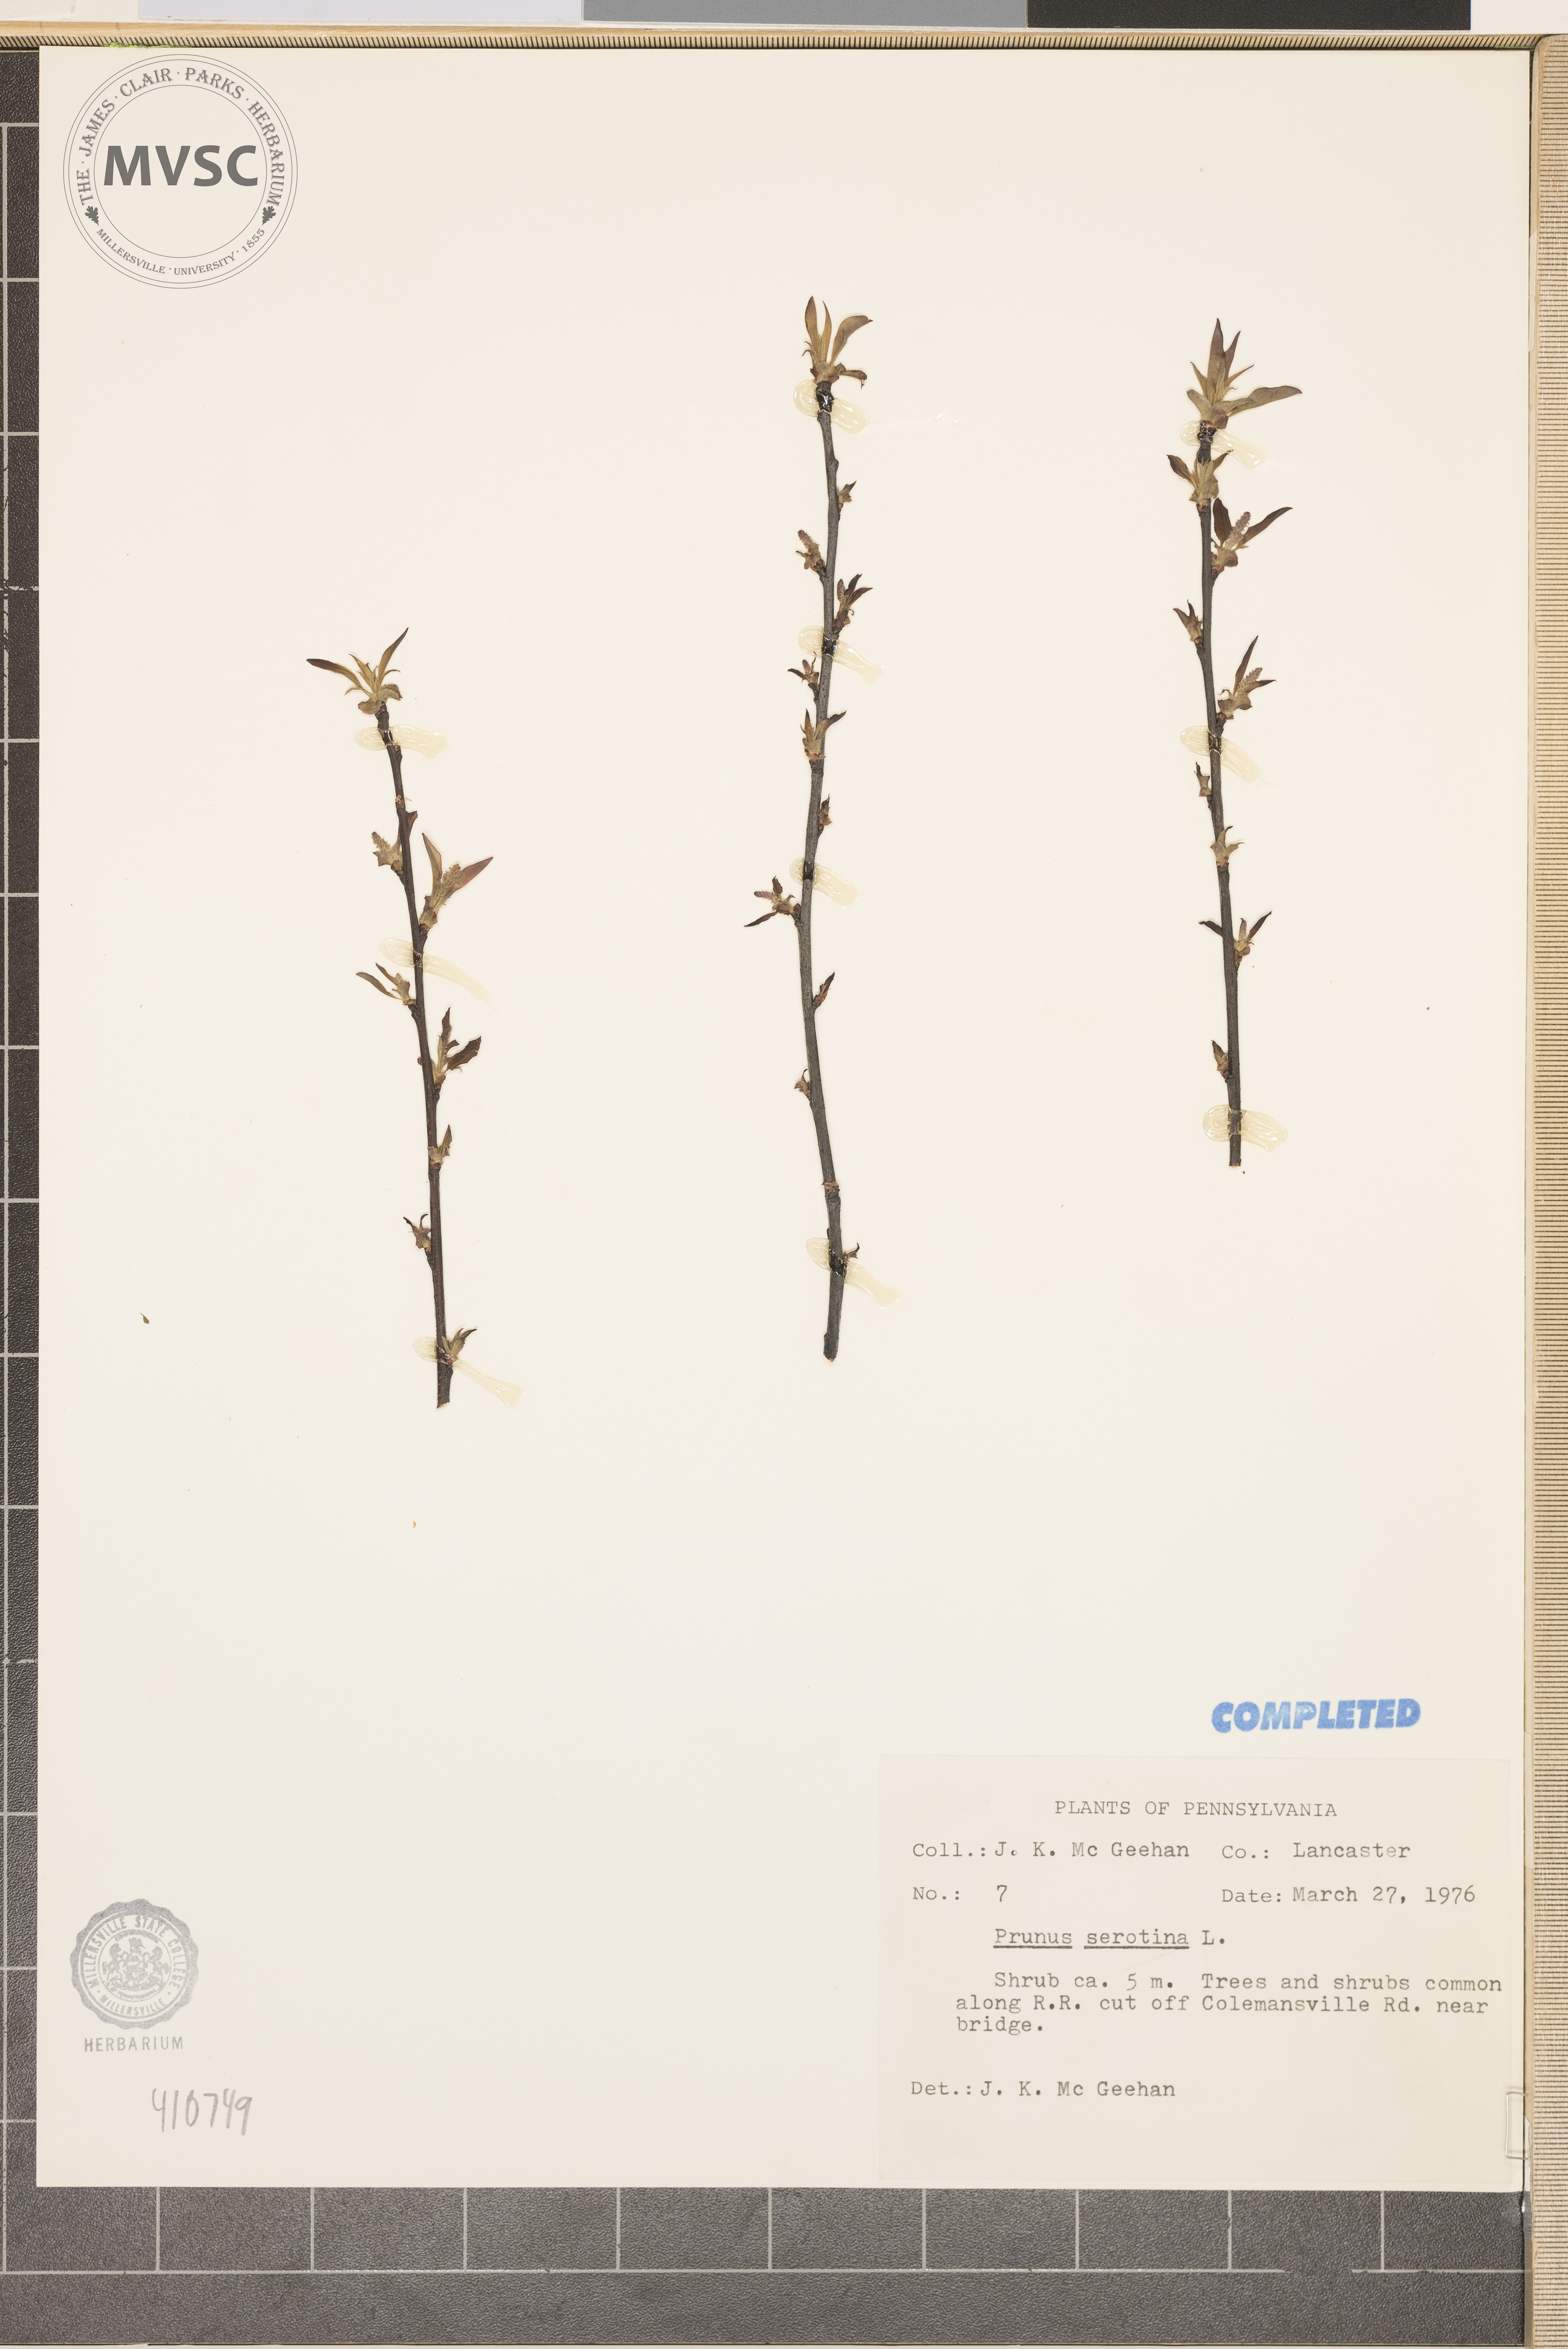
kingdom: Plantae
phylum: Tracheophyta
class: Magnoliopsida
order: Rosales
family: Rosaceae
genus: Prunus
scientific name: Prunus serotina
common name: Black cherry
